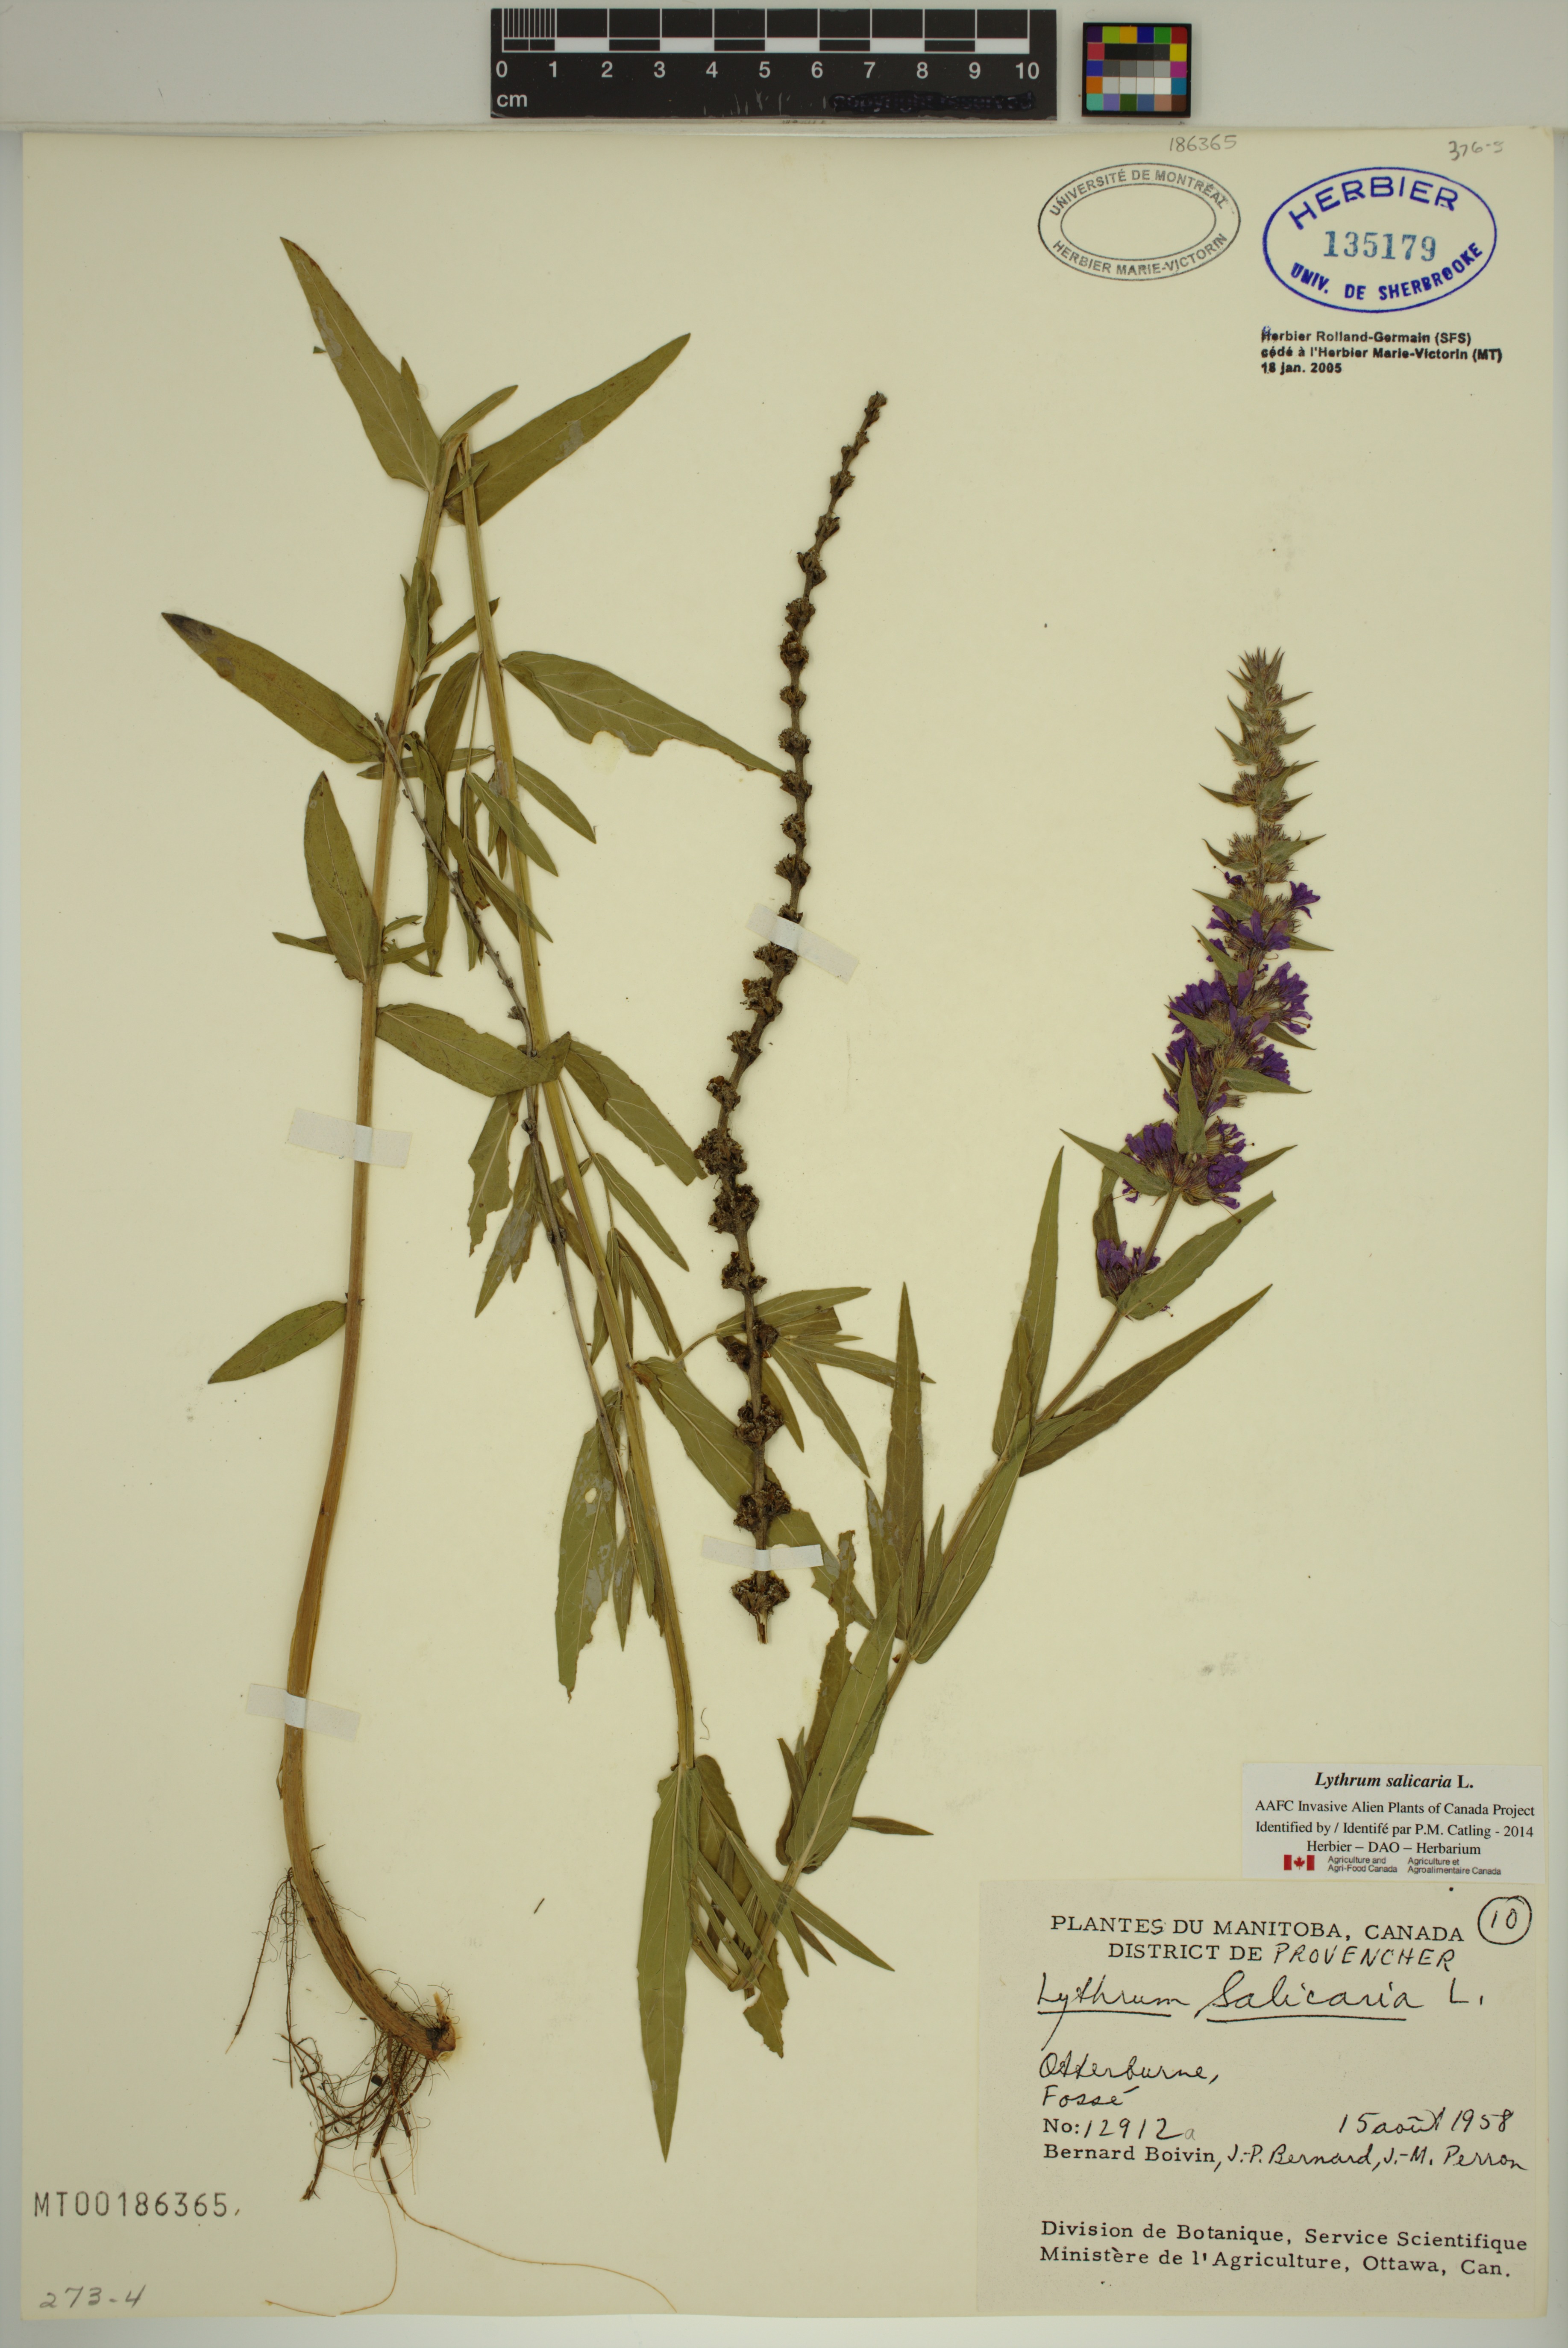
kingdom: Plantae
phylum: Tracheophyta
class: Magnoliopsida
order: Myrtales
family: Lythraceae
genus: Lythrum
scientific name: Lythrum salicaria
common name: Purple loosestrife
